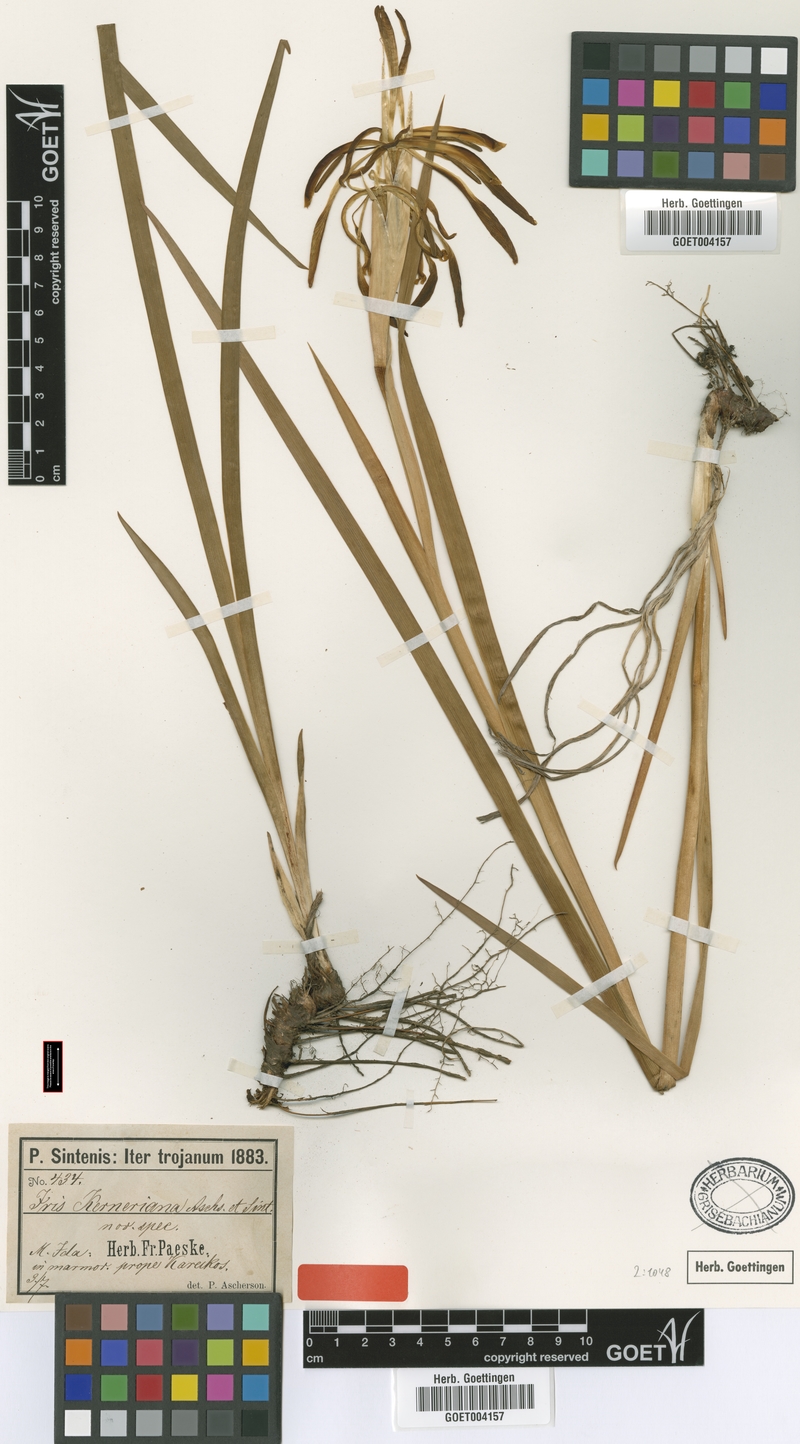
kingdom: Plantae
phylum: Tracheophyta
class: Liliopsida
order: Asparagales
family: Iridaceae
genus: Iris
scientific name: Iris kerneriana
